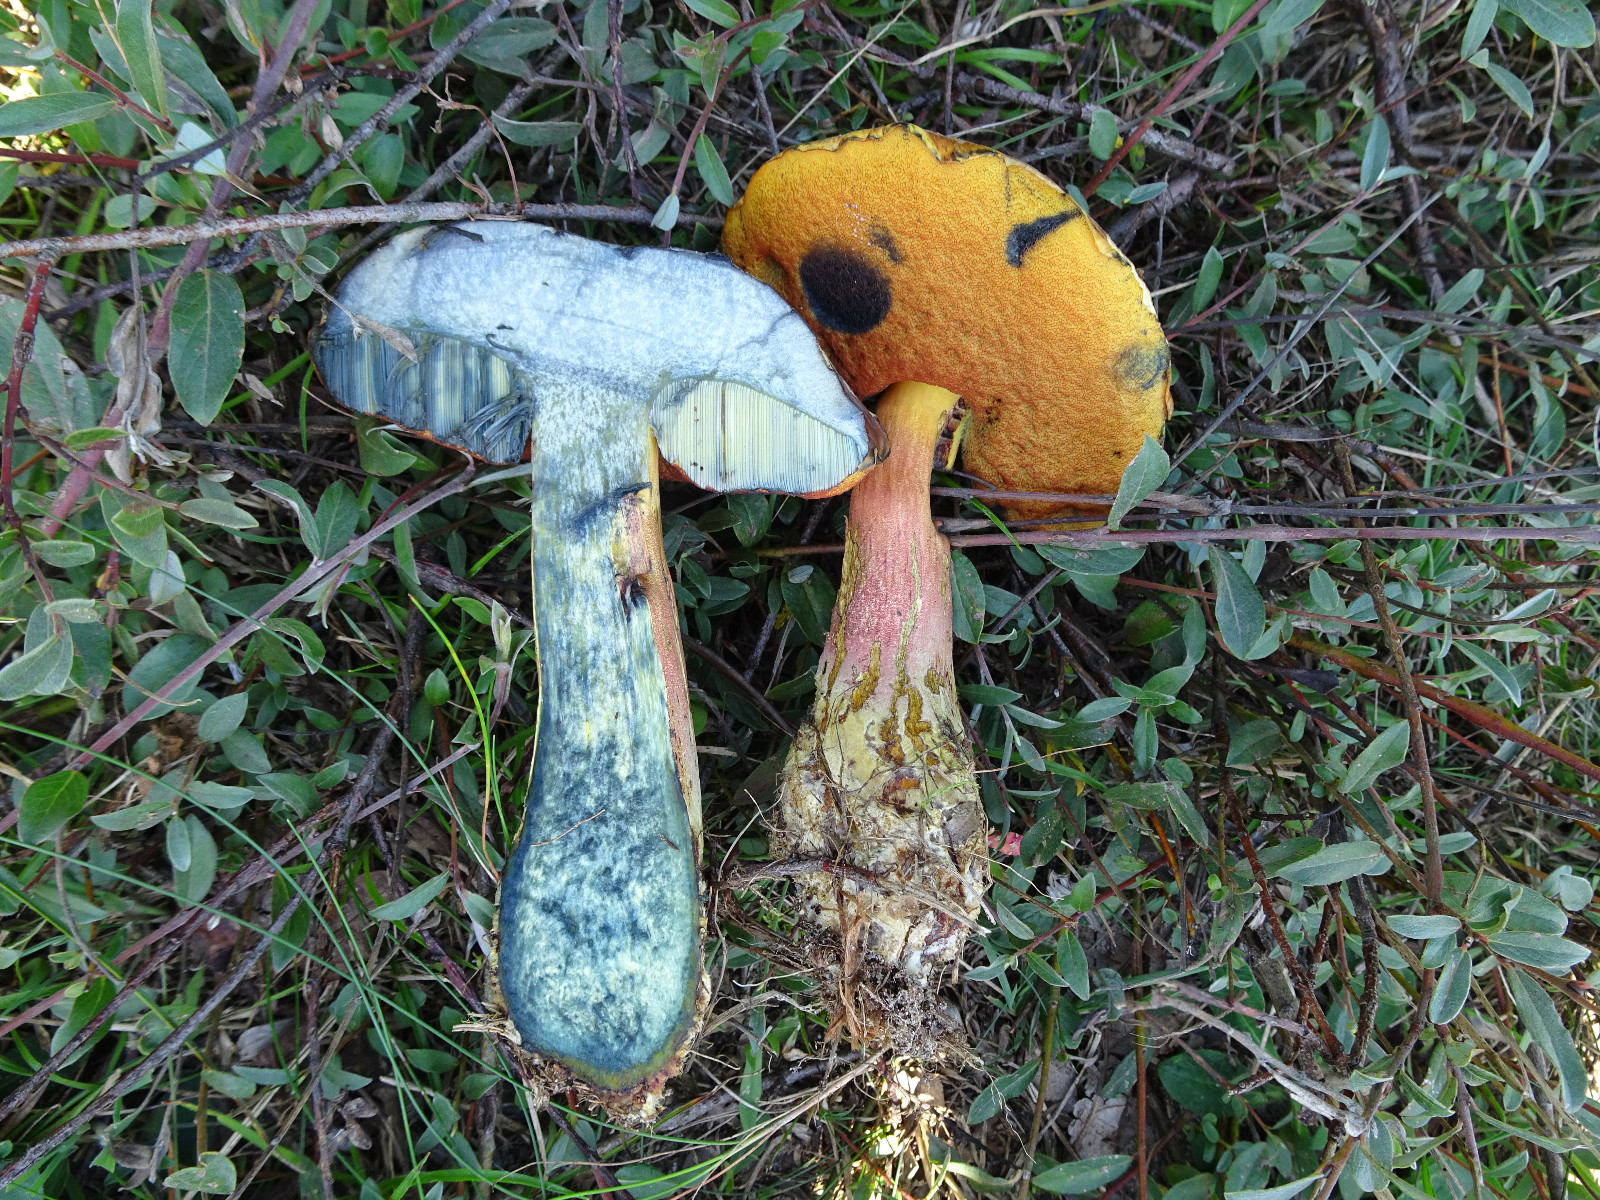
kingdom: Fungi
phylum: Basidiomycota
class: Agaricomycetes
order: Boletales
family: Boletaceae
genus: Neoboletus
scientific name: Neoboletus erythropus
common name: punktstokket indigorørhat
